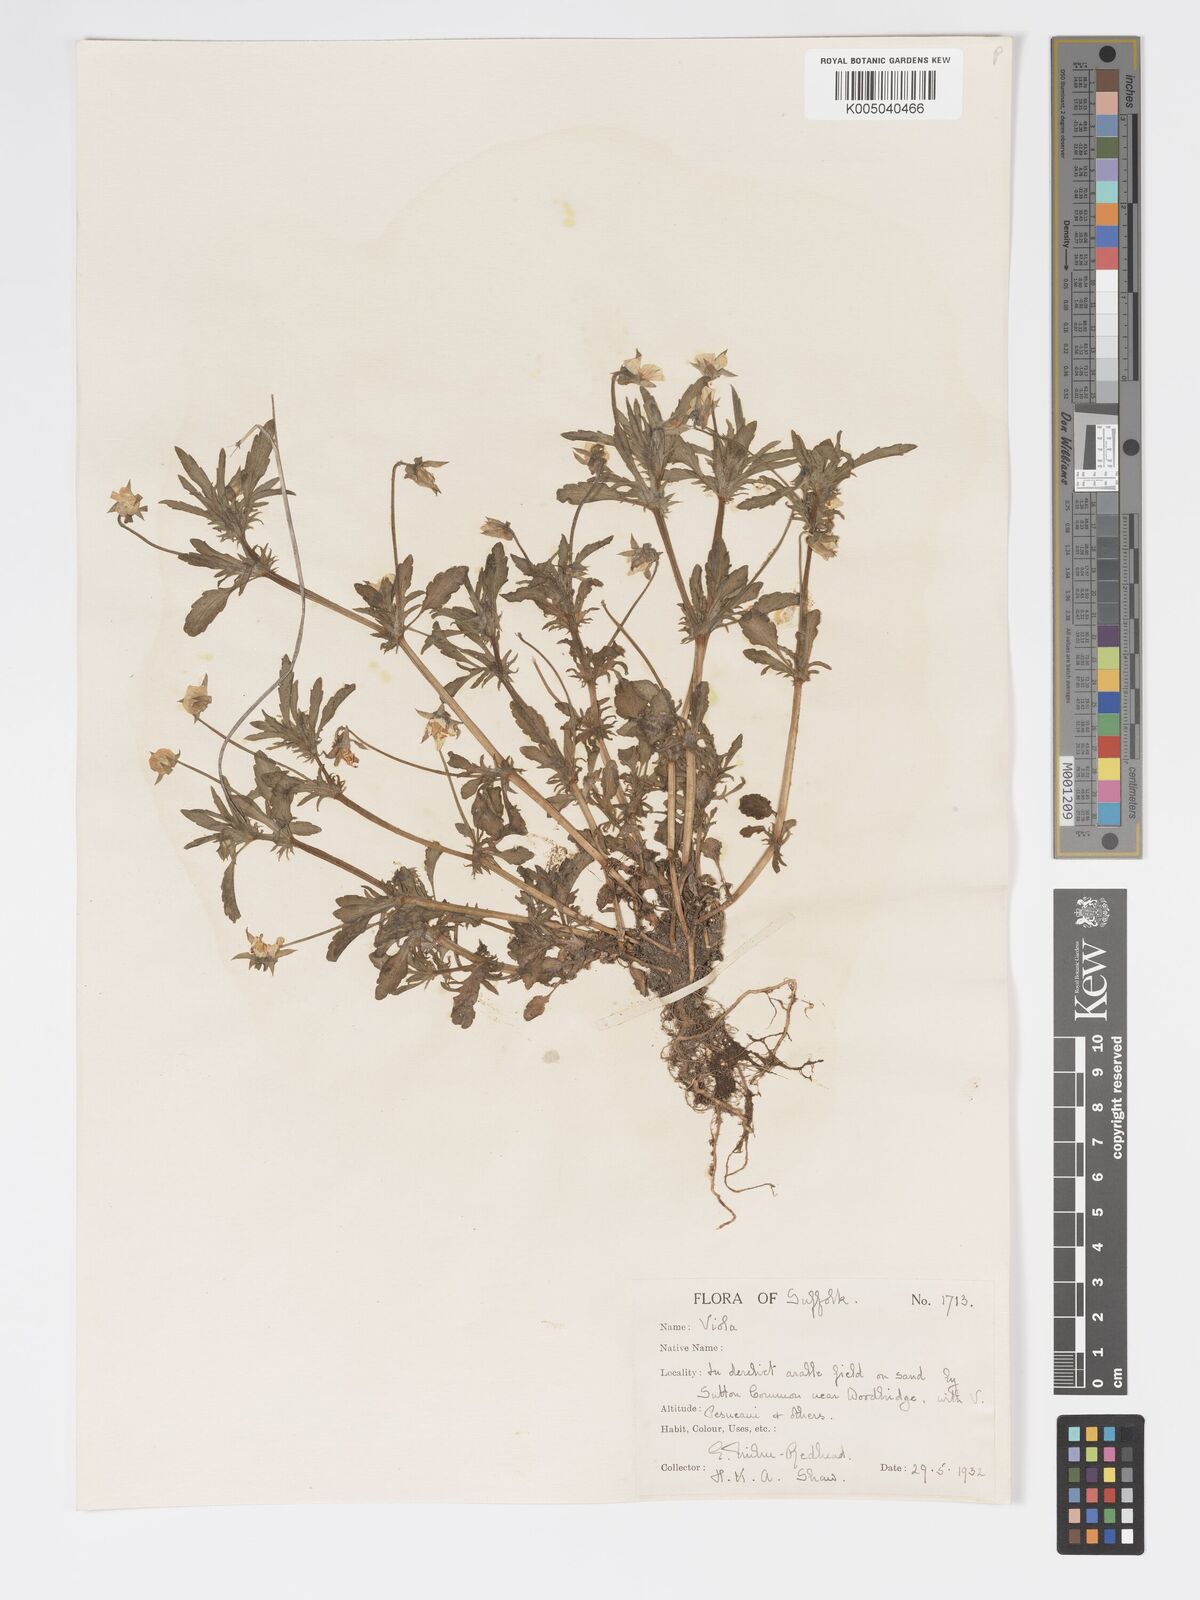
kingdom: Plantae
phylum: Tracheophyta
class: Magnoliopsida
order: Malpighiales
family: Violaceae
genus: Viola
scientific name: Viola arvensis
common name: Field pansy
